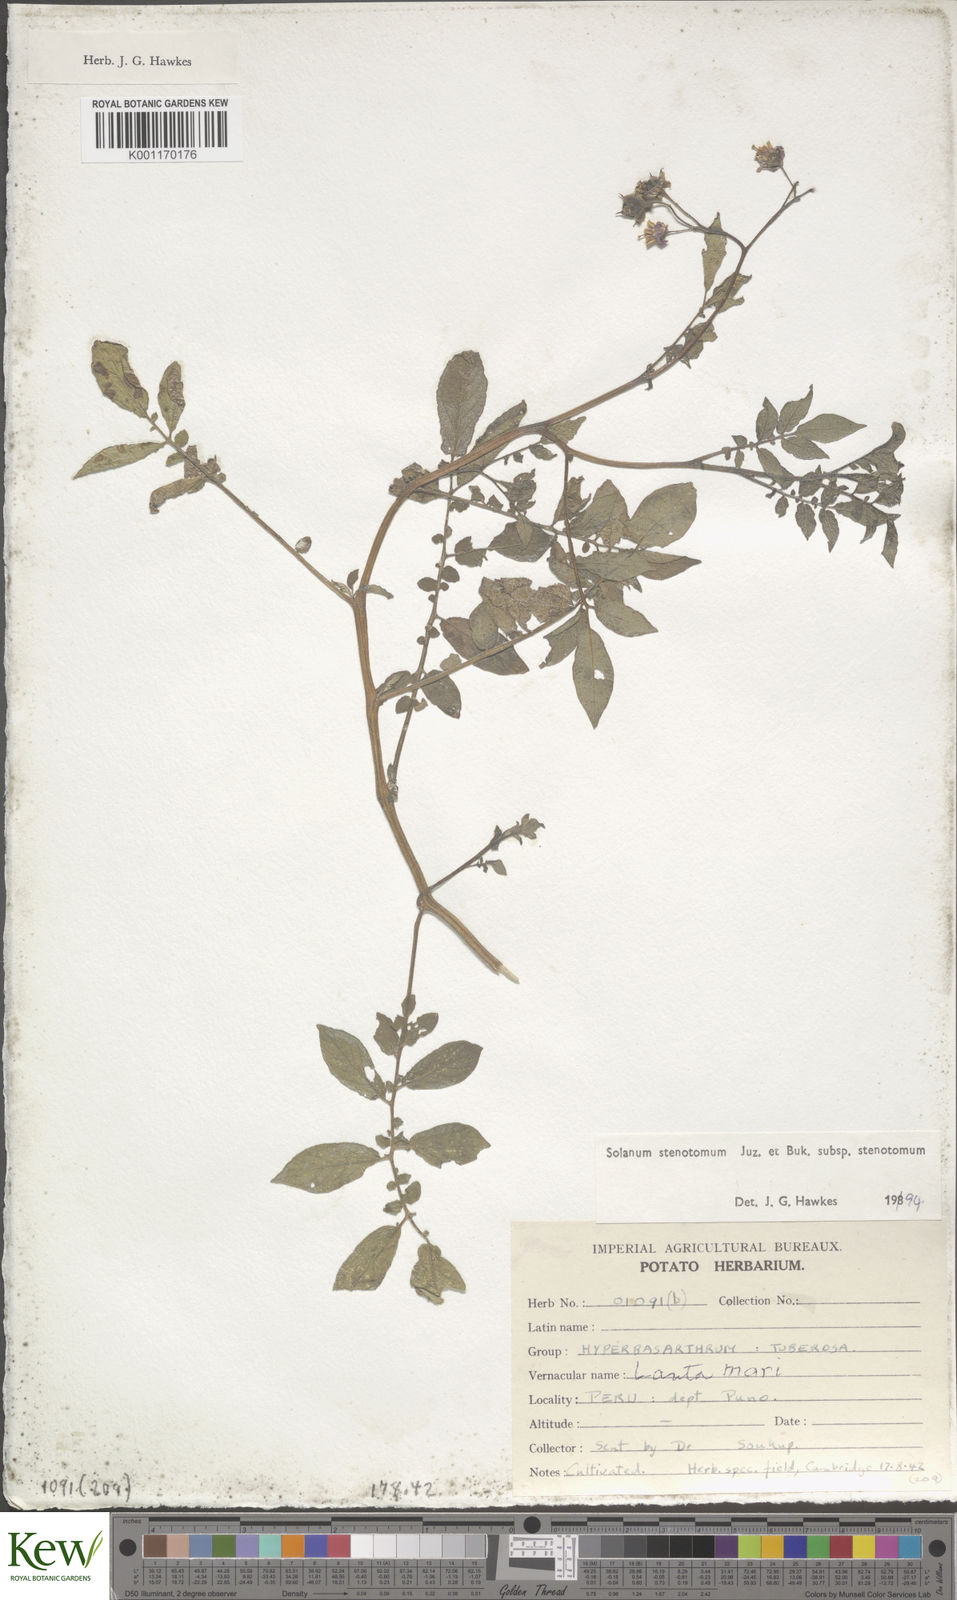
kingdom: Plantae
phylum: Tracheophyta
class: Magnoliopsida
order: Solanales
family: Solanaceae
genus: Solanum
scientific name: Solanum tuberosum
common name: Potato
